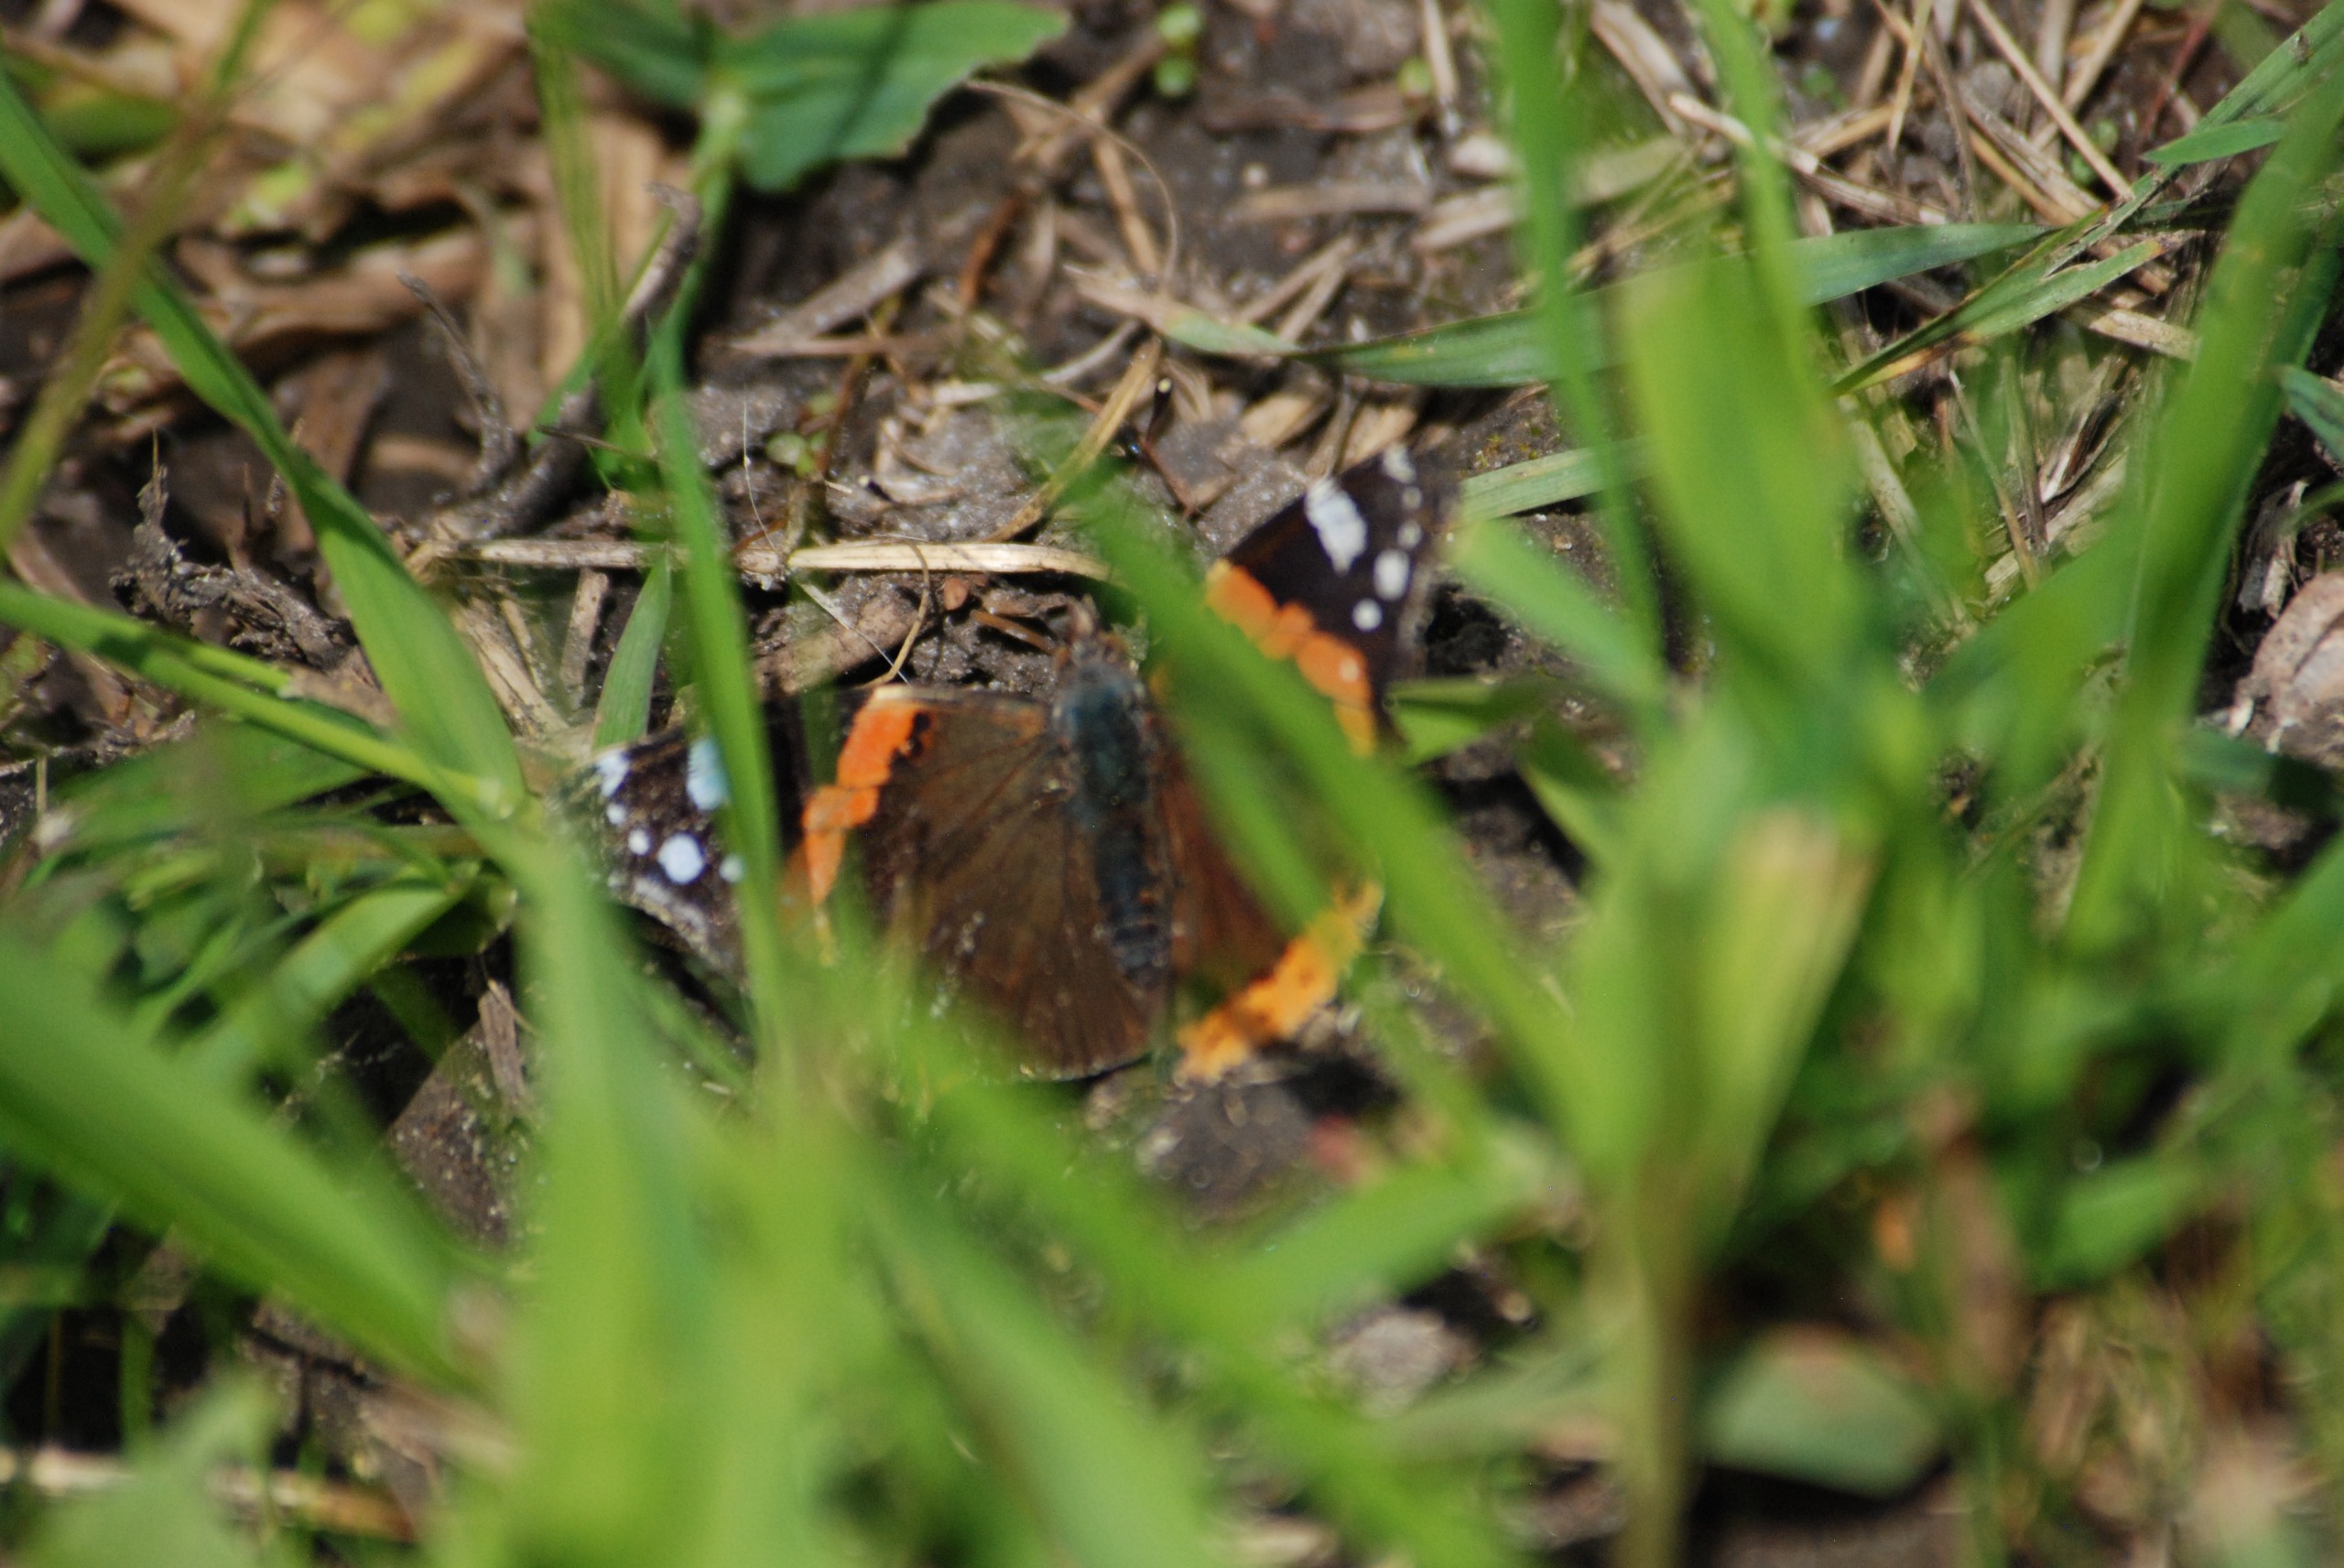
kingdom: Animalia
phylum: Arthropoda
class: Insecta
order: Lepidoptera
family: Nymphalidae
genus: Vanessa
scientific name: Vanessa atalanta
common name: Admiral
